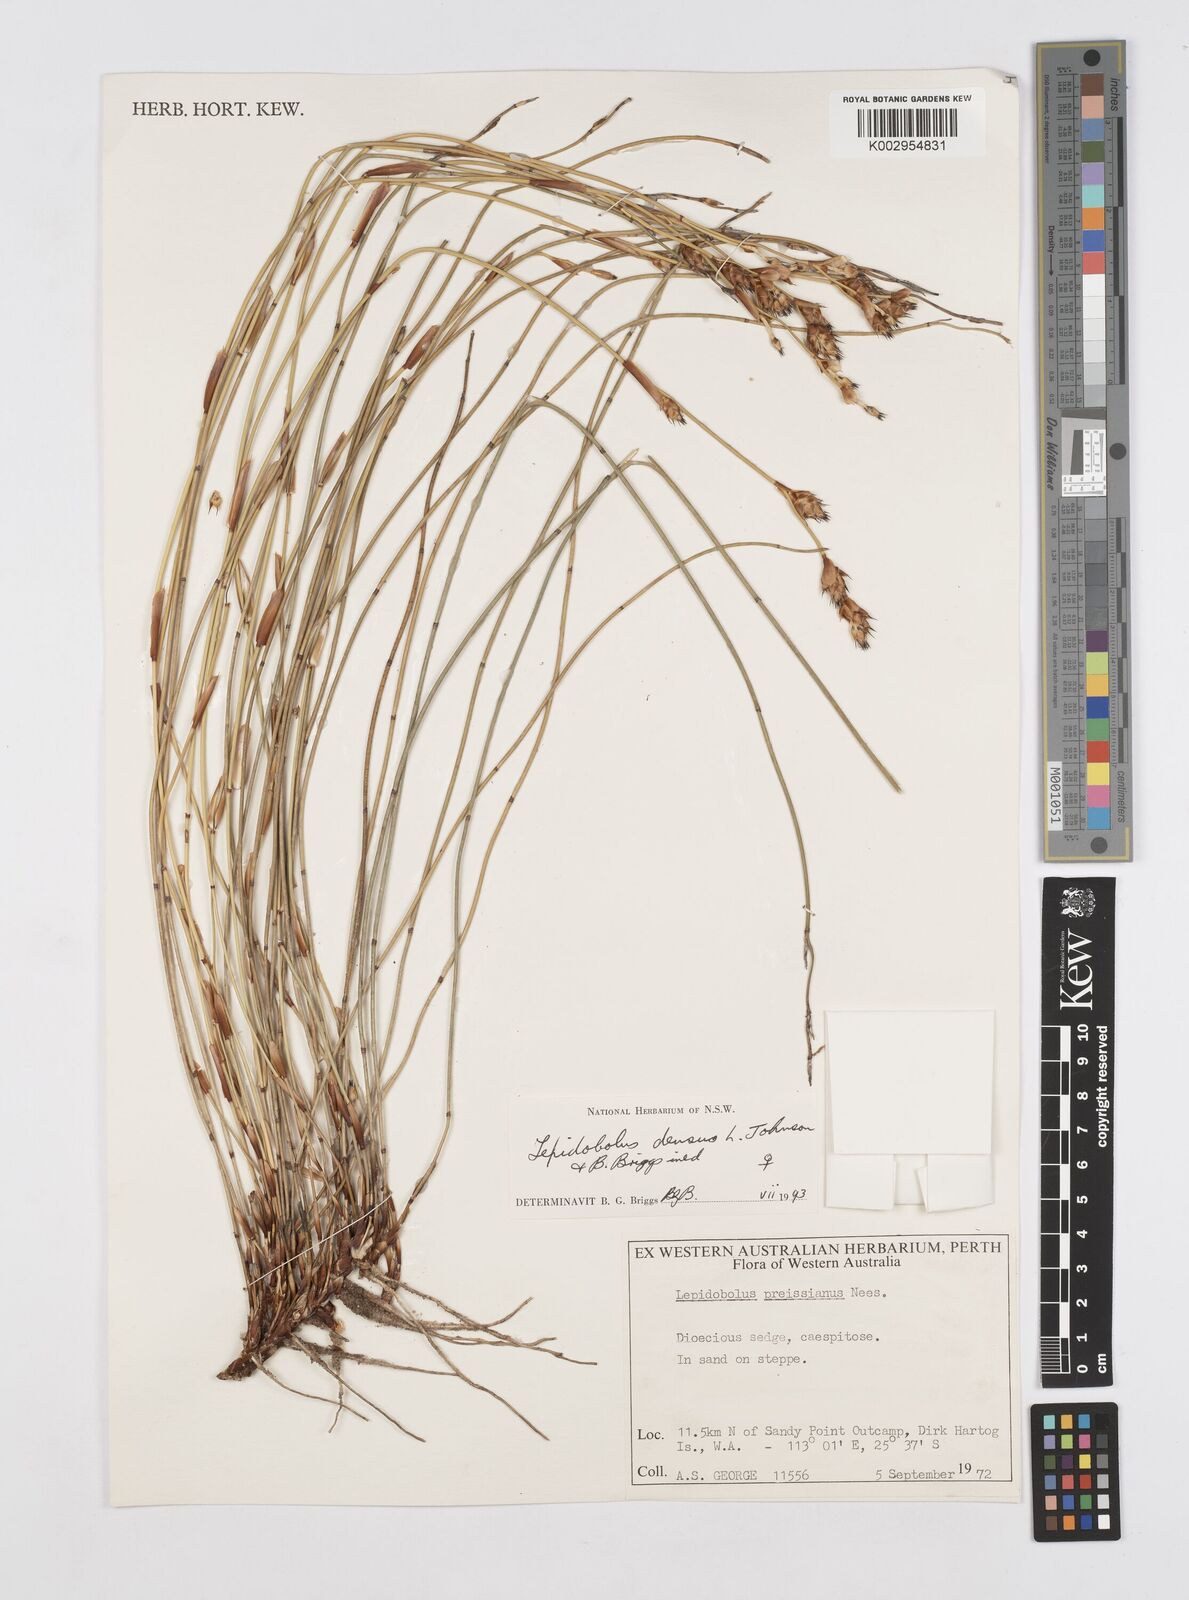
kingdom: Plantae
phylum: Tracheophyta
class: Liliopsida
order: Poales
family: Restionaceae
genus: Lepidobolus
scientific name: Lepidobolus densus
